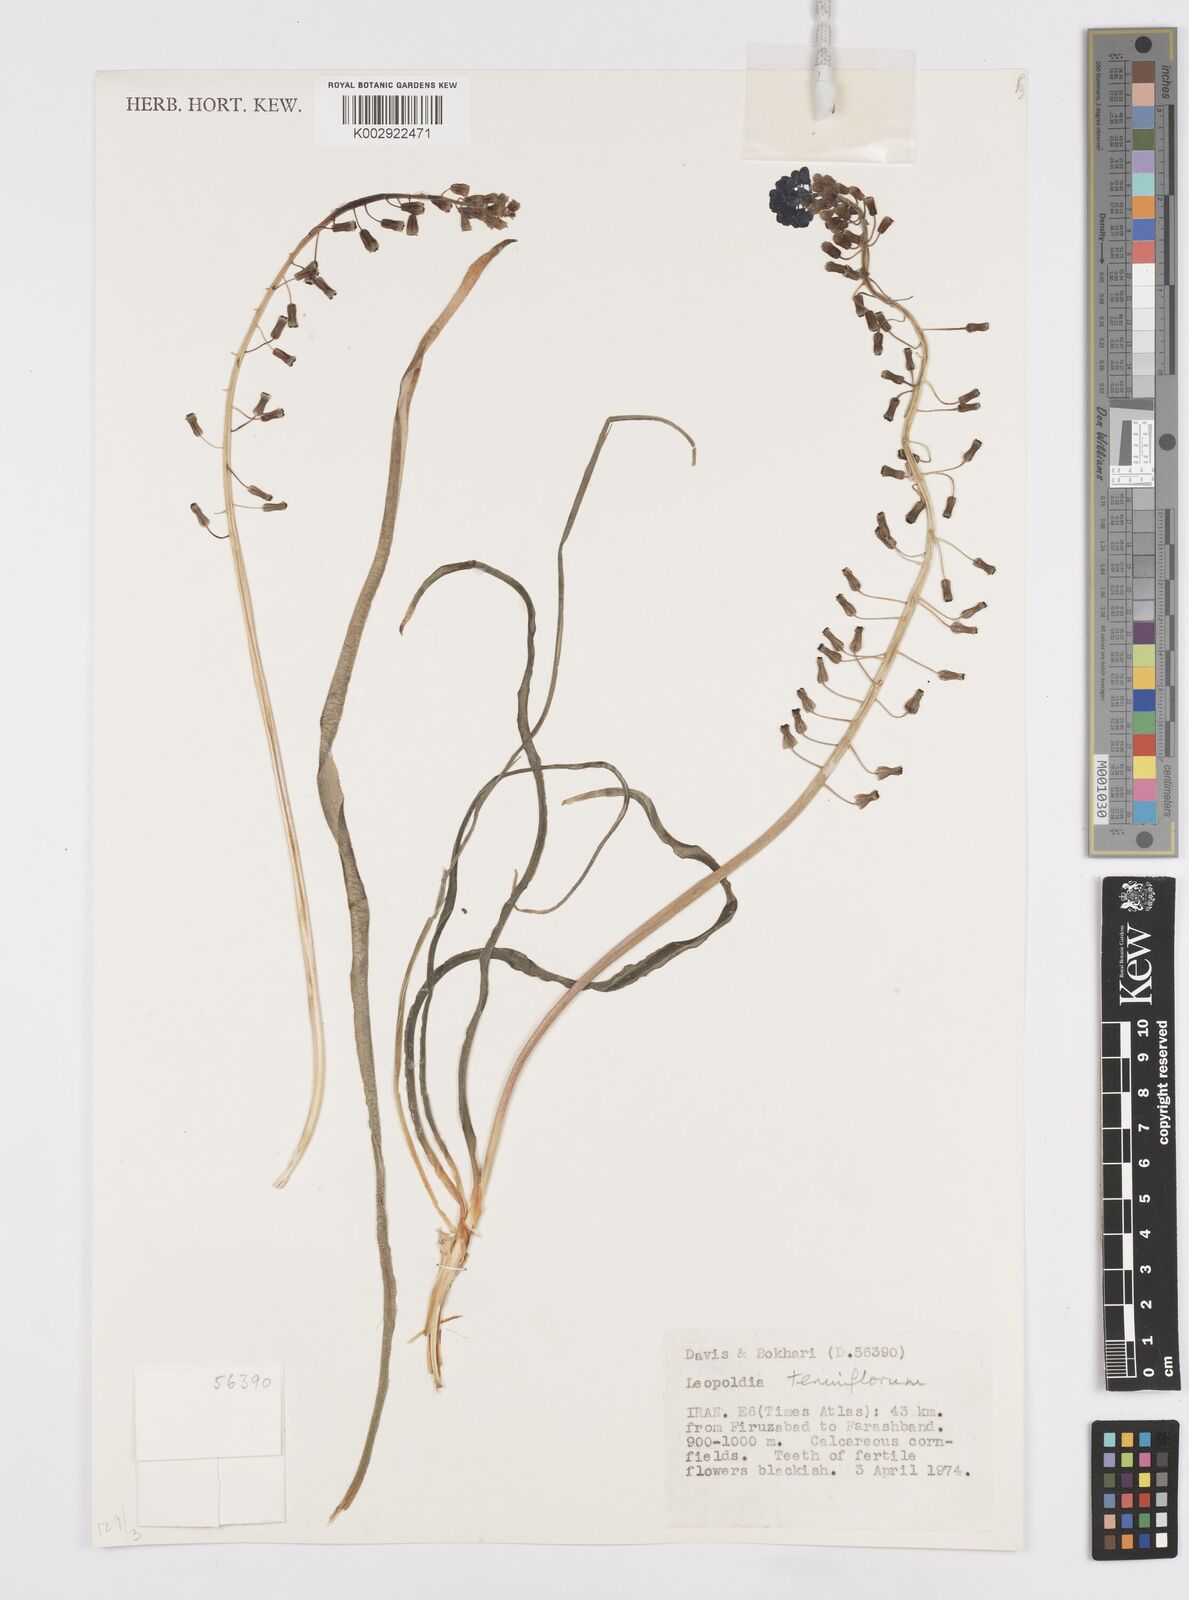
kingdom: Plantae
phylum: Tracheophyta
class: Liliopsida
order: Asparagales
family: Asparagaceae
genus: Muscari
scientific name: Muscari tenuiflorum
